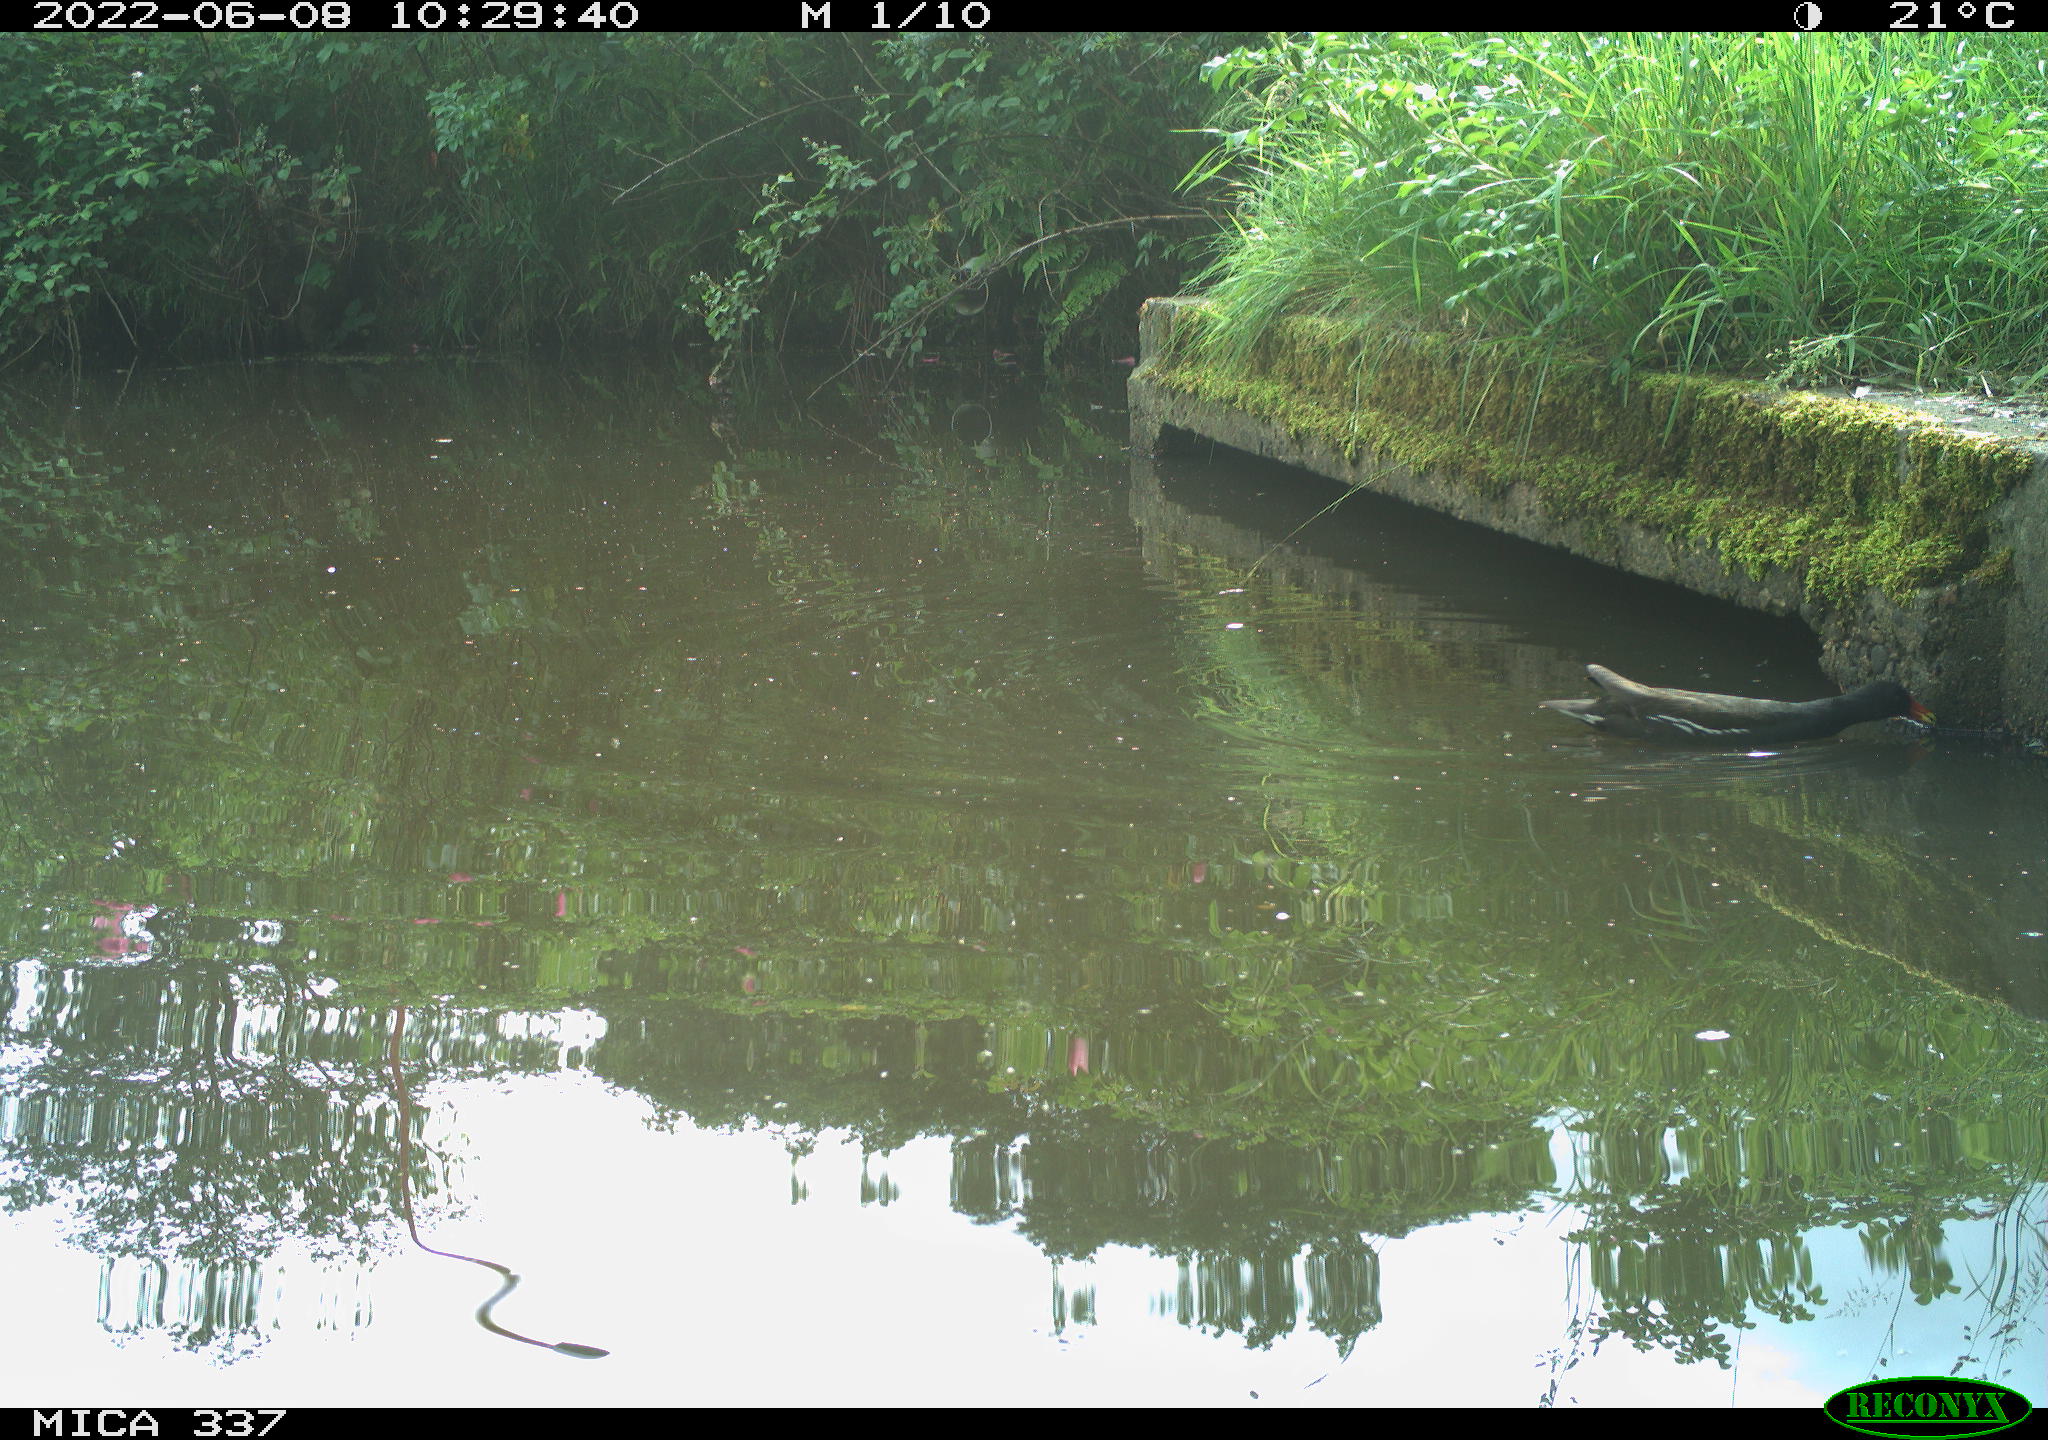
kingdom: Animalia
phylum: Chordata
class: Aves
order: Gruiformes
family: Rallidae
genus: Gallinula
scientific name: Gallinula chloropus
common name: Common moorhen
